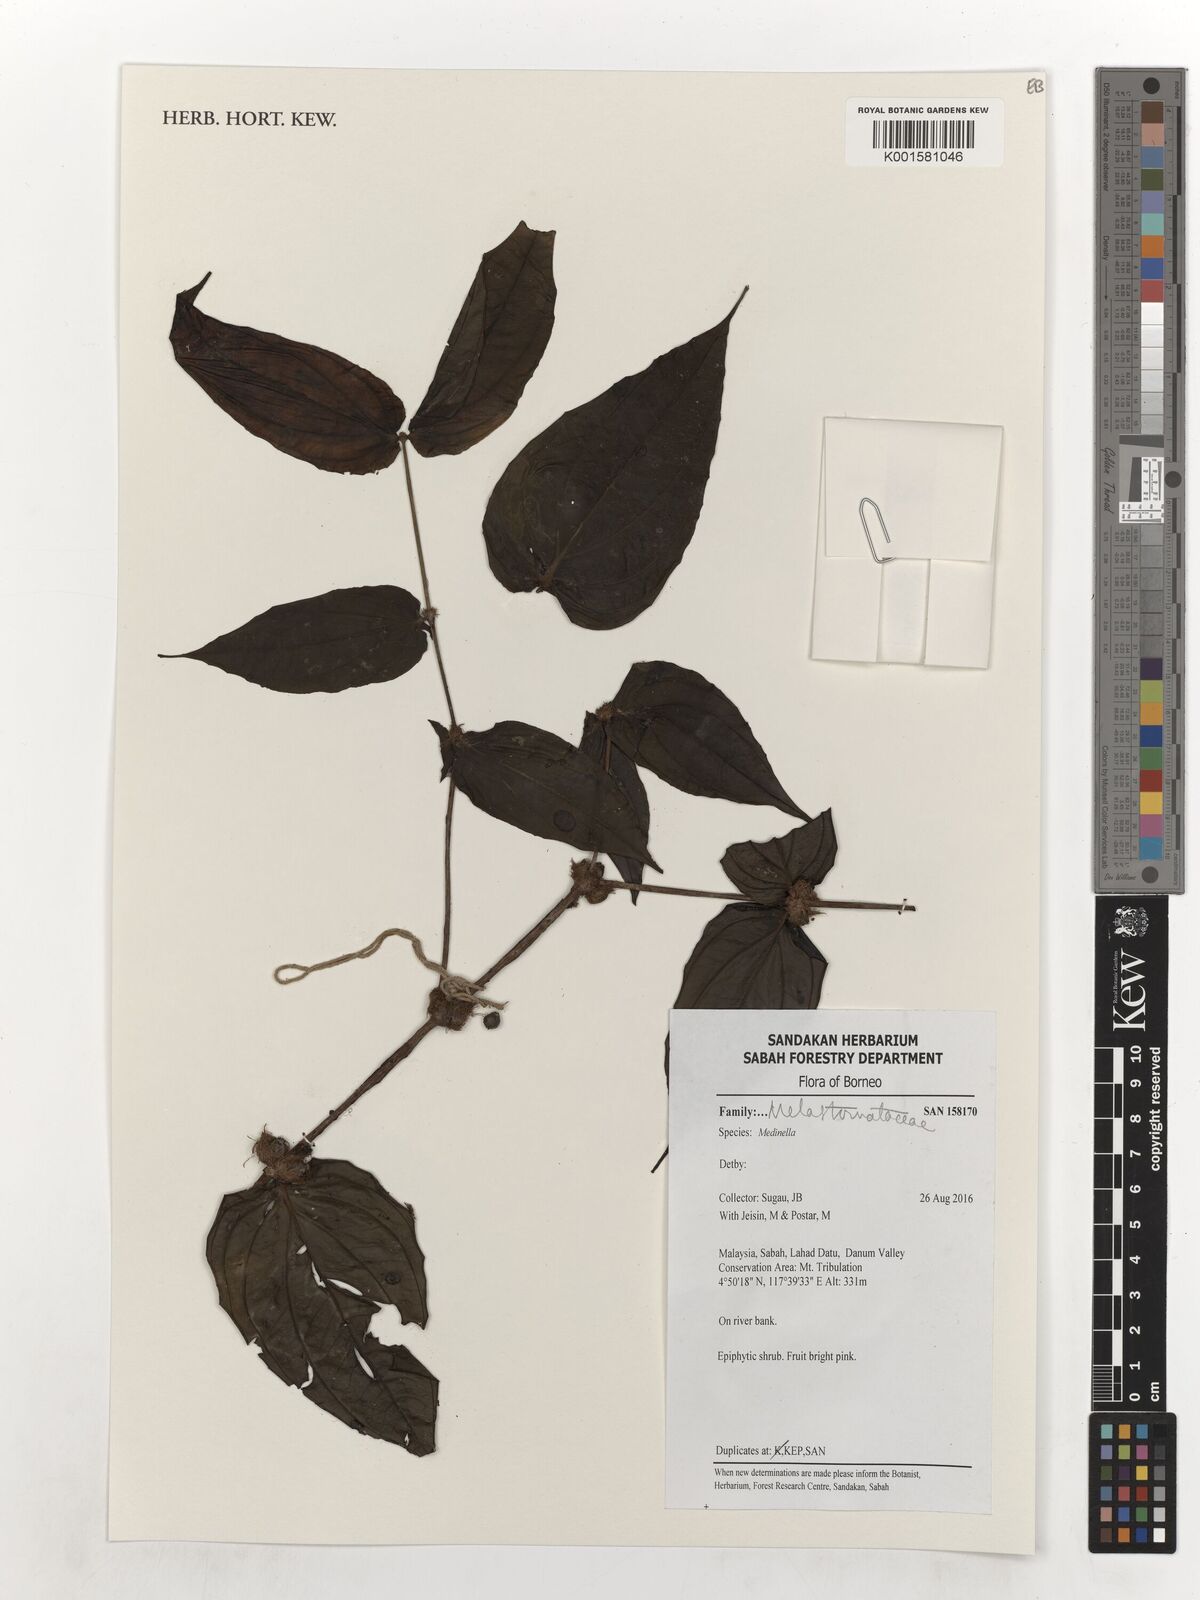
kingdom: Plantae
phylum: Tracheophyta
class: Magnoliopsida
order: Myrtales
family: Melastomataceae
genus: Medinilla
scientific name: Medinilla
